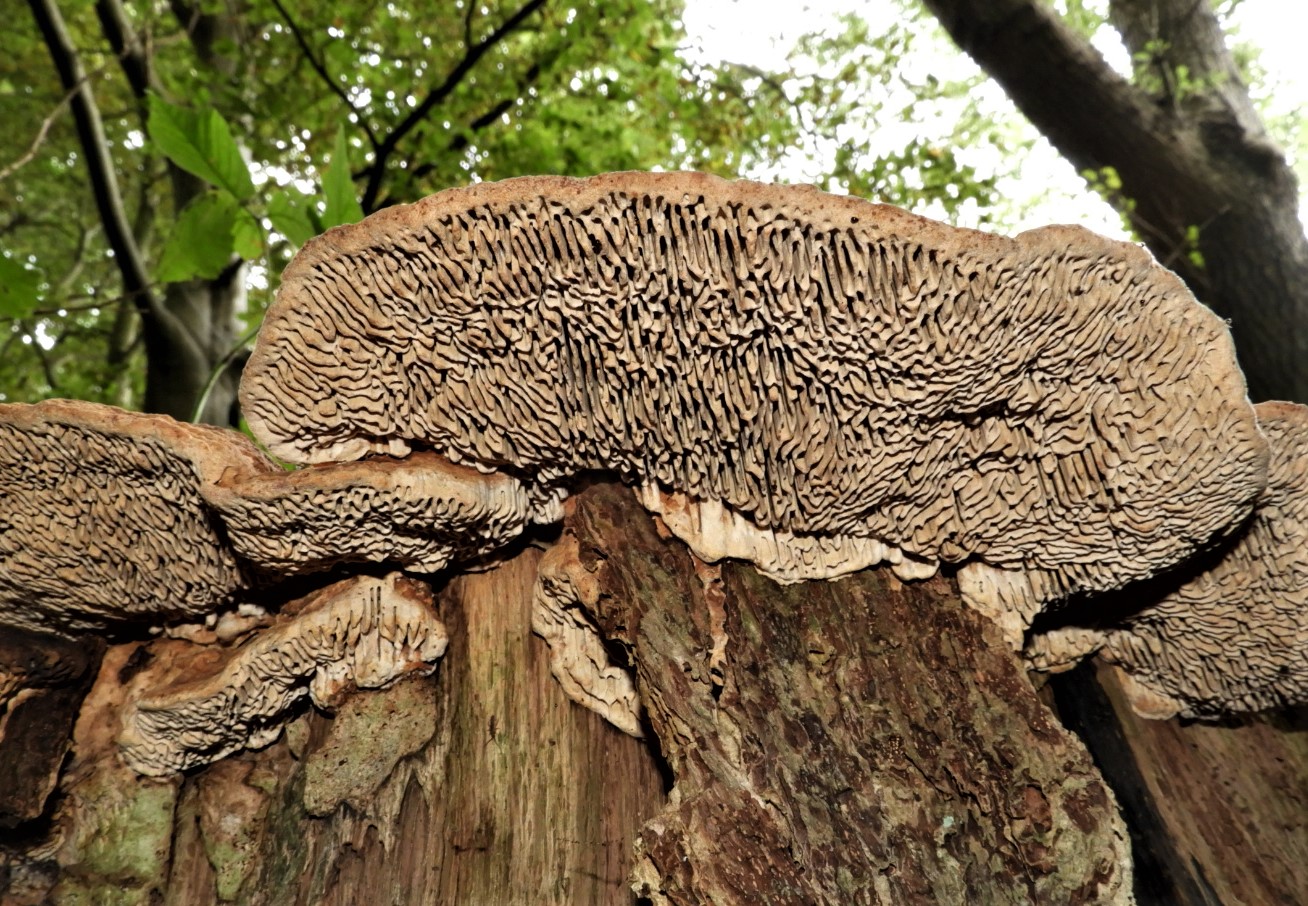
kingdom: Fungi
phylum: Basidiomycota
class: Agaricomycetes
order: Polyporales
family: Fomitopsidaceae
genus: Daedalea
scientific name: Daedalea quercina
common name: ege-labyrintsvamp
